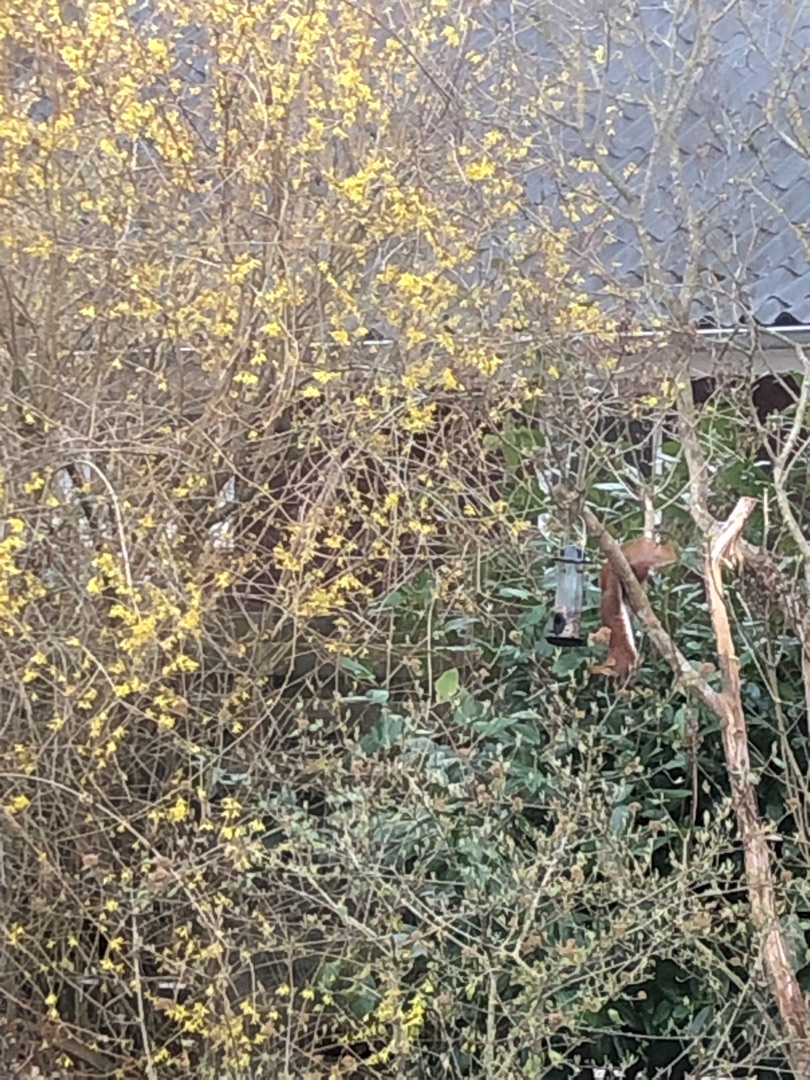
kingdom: Animalia
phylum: Chordata
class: Mammalia
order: Rodentia
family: Sciuridae
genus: Sciurus
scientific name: Sciurus vulgaris
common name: Egern
